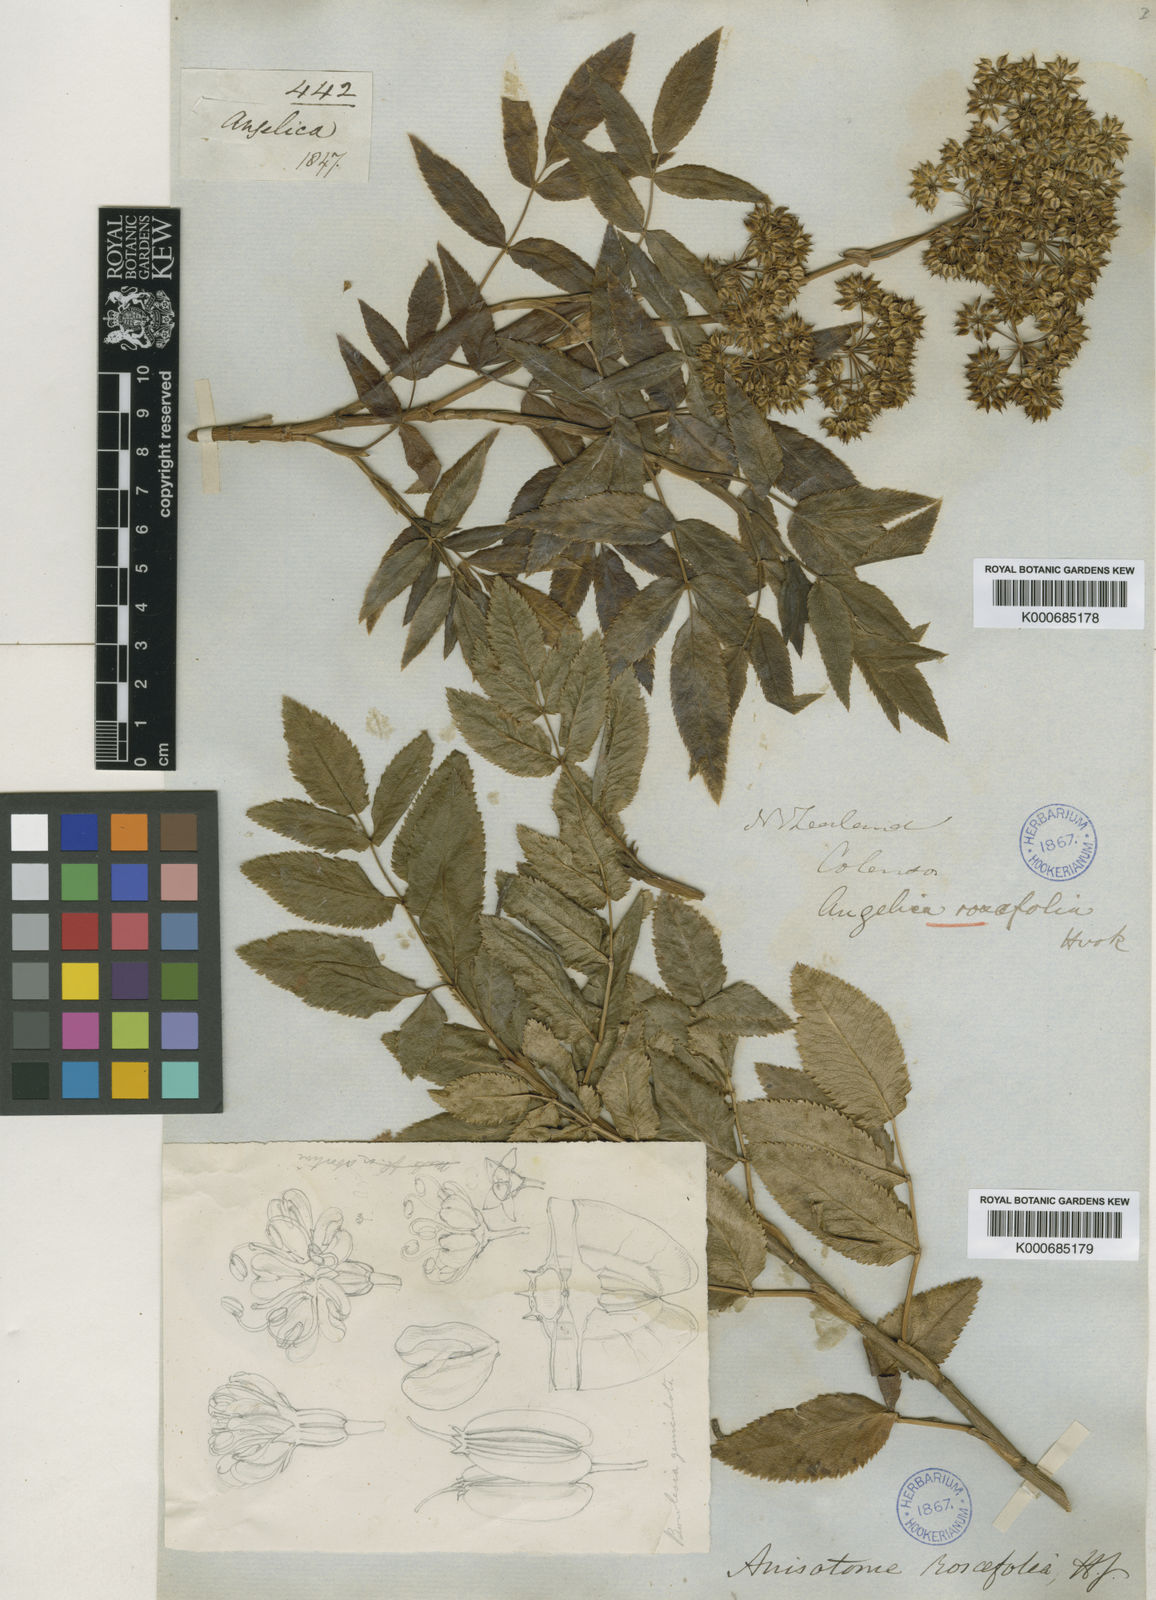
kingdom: Plantae
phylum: Tracheophyta
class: Magnoliopsida
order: Apiales
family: Apiaceae
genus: Scandia
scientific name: Scandia rosifolia
